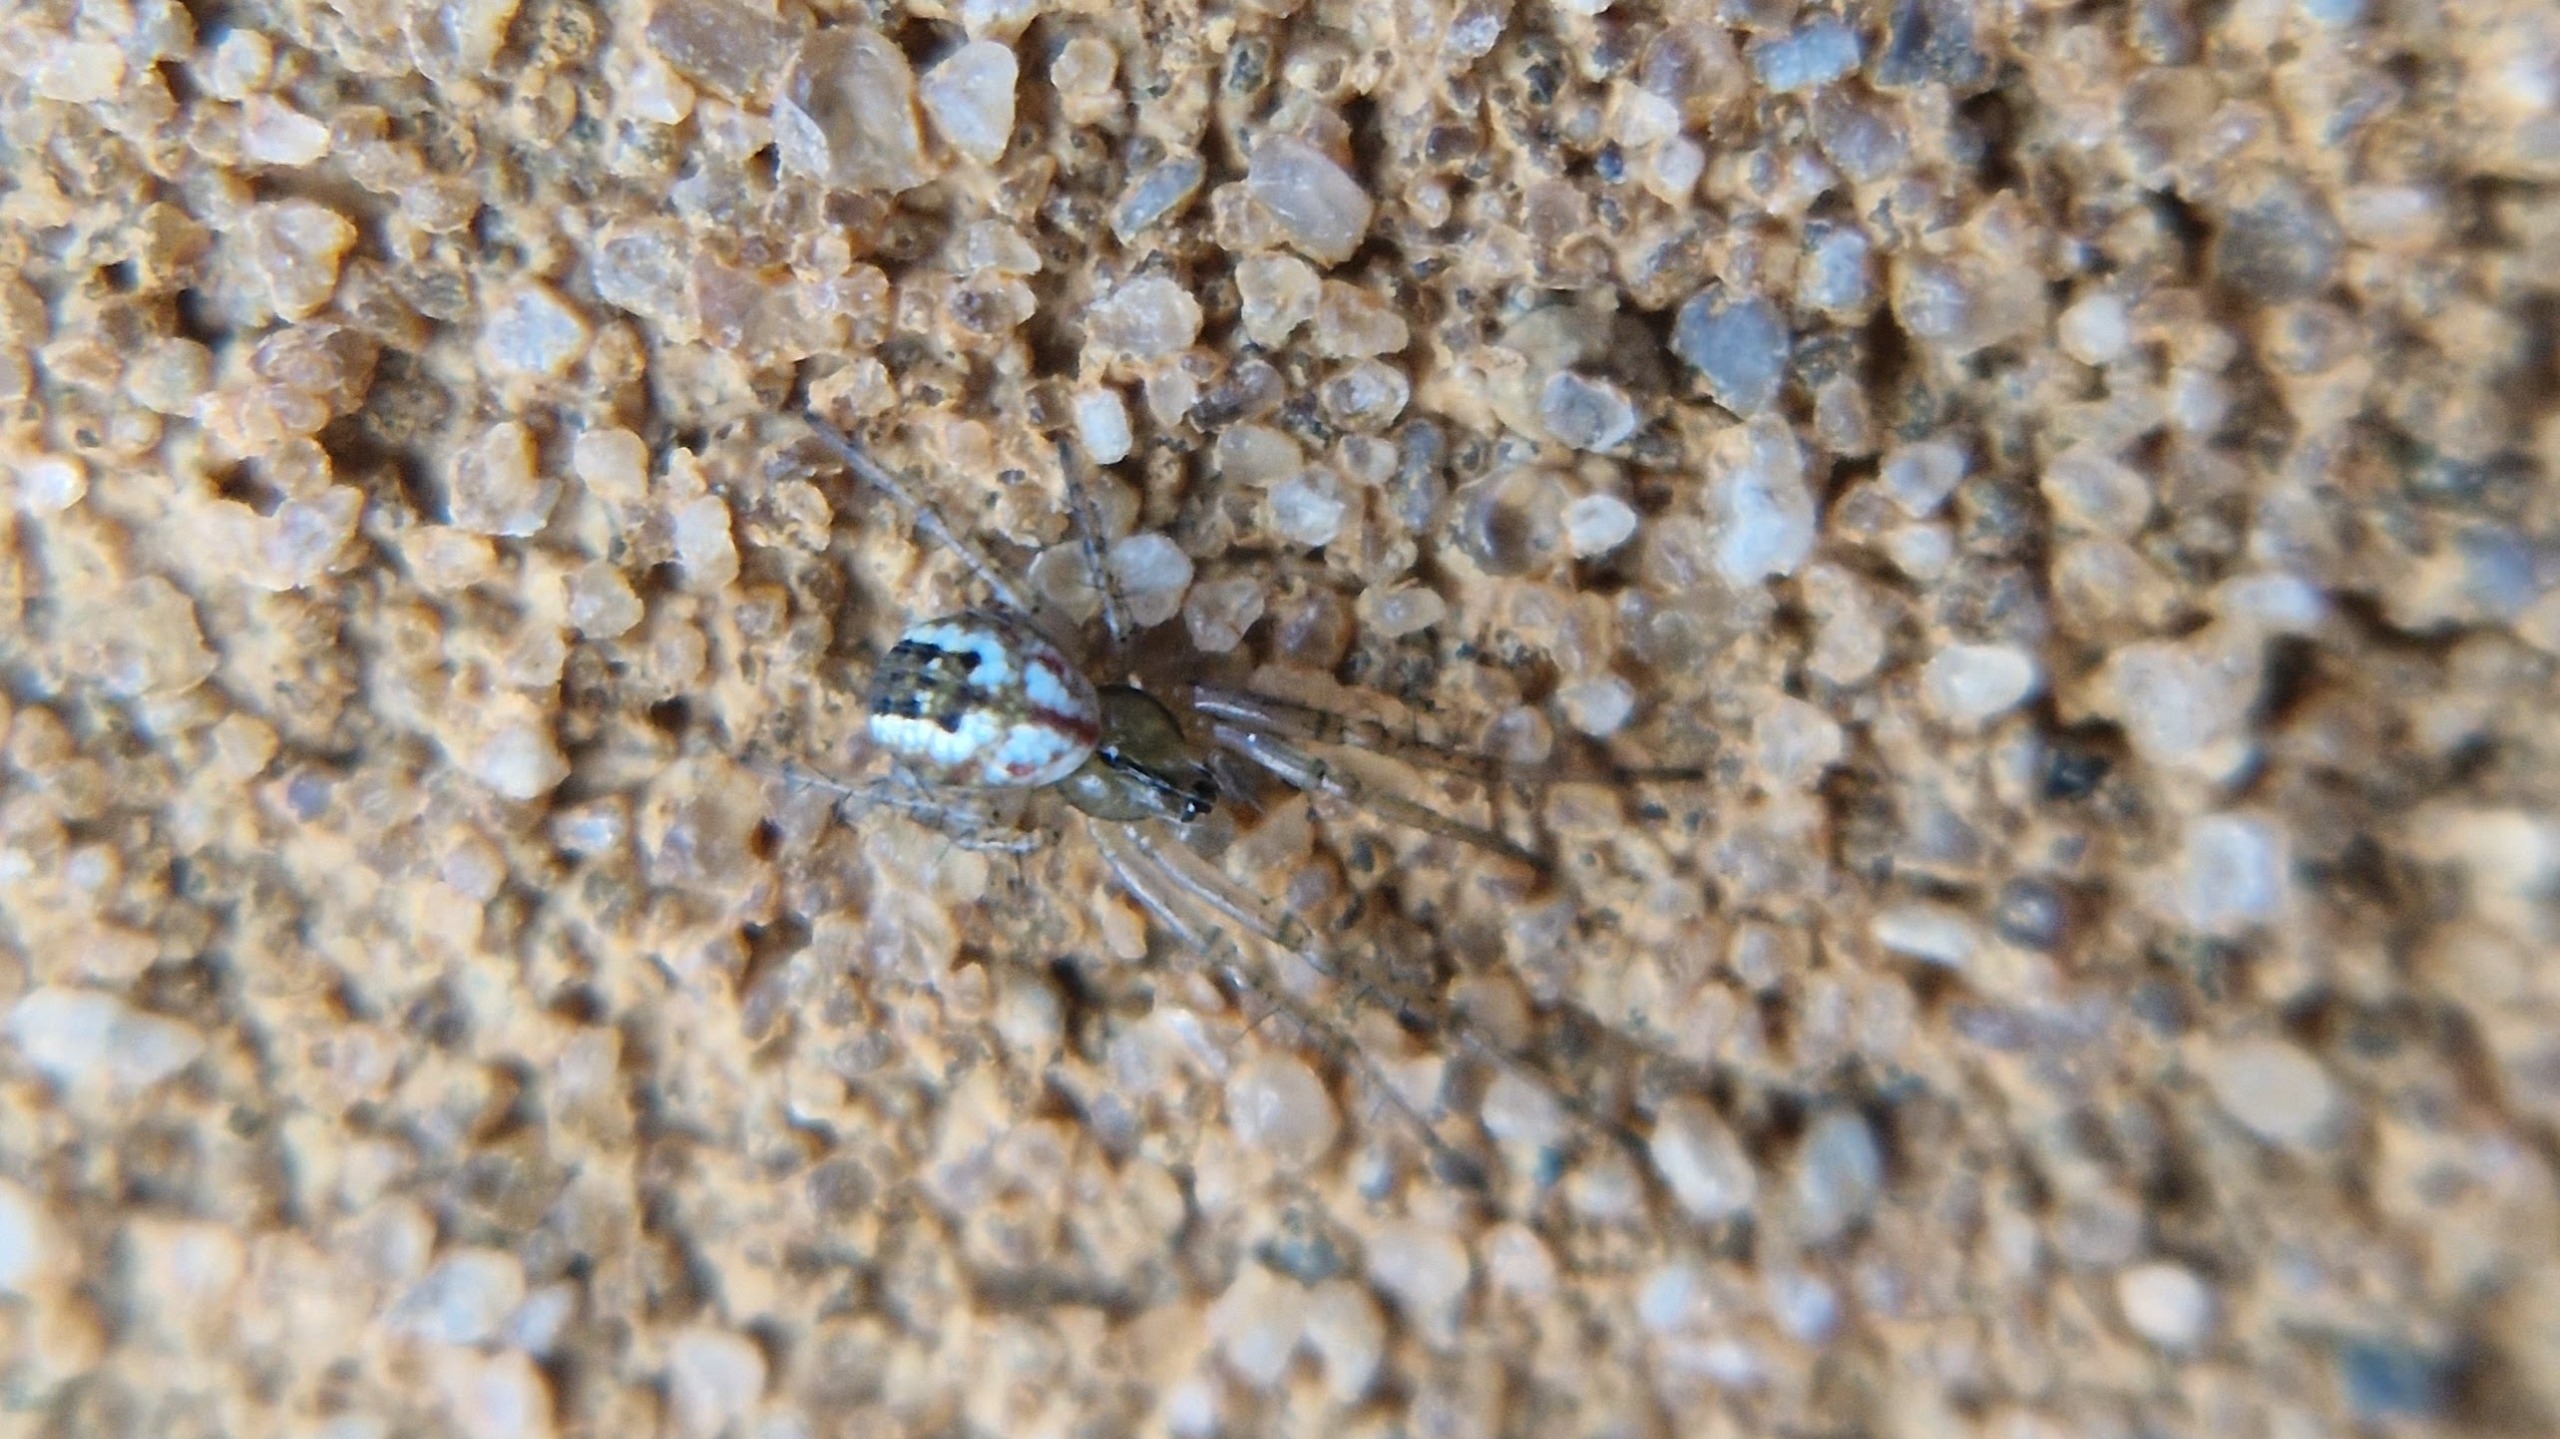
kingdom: Animalia
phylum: Arthropoda
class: Arachnida
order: Araneae
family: Araneidae
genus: Mangora
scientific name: Mangora acalypha
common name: Sortstribet hedehjulspinder
